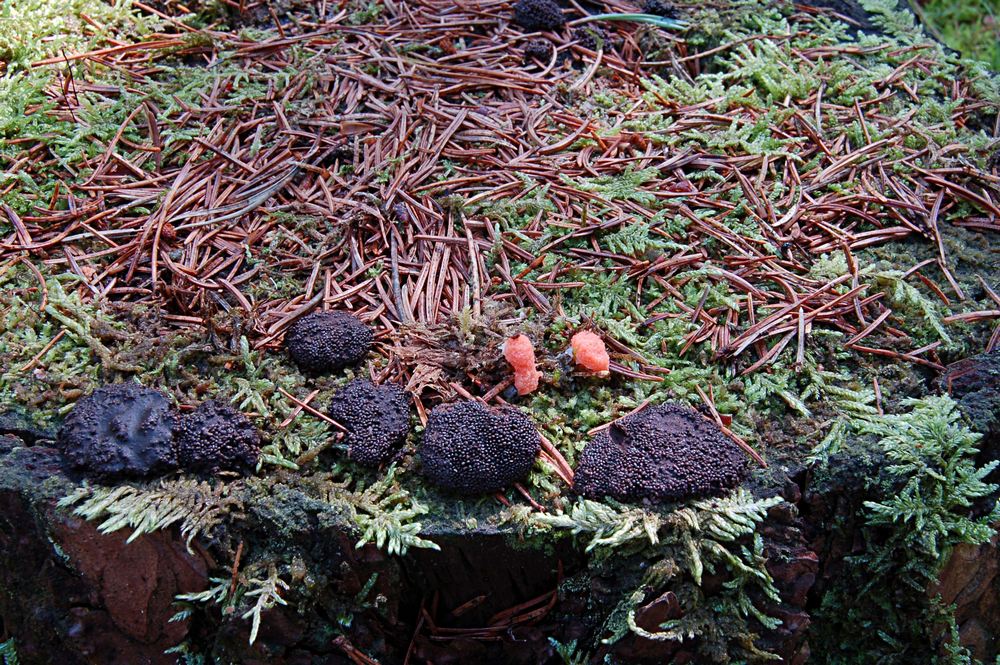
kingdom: Protozoa
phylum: Mycetozoa
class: Myxomycetes
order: Cribrariales
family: Tubiferaceae
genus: Tubifera
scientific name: Tubifera ferruginosa
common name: kanel-støvrør
